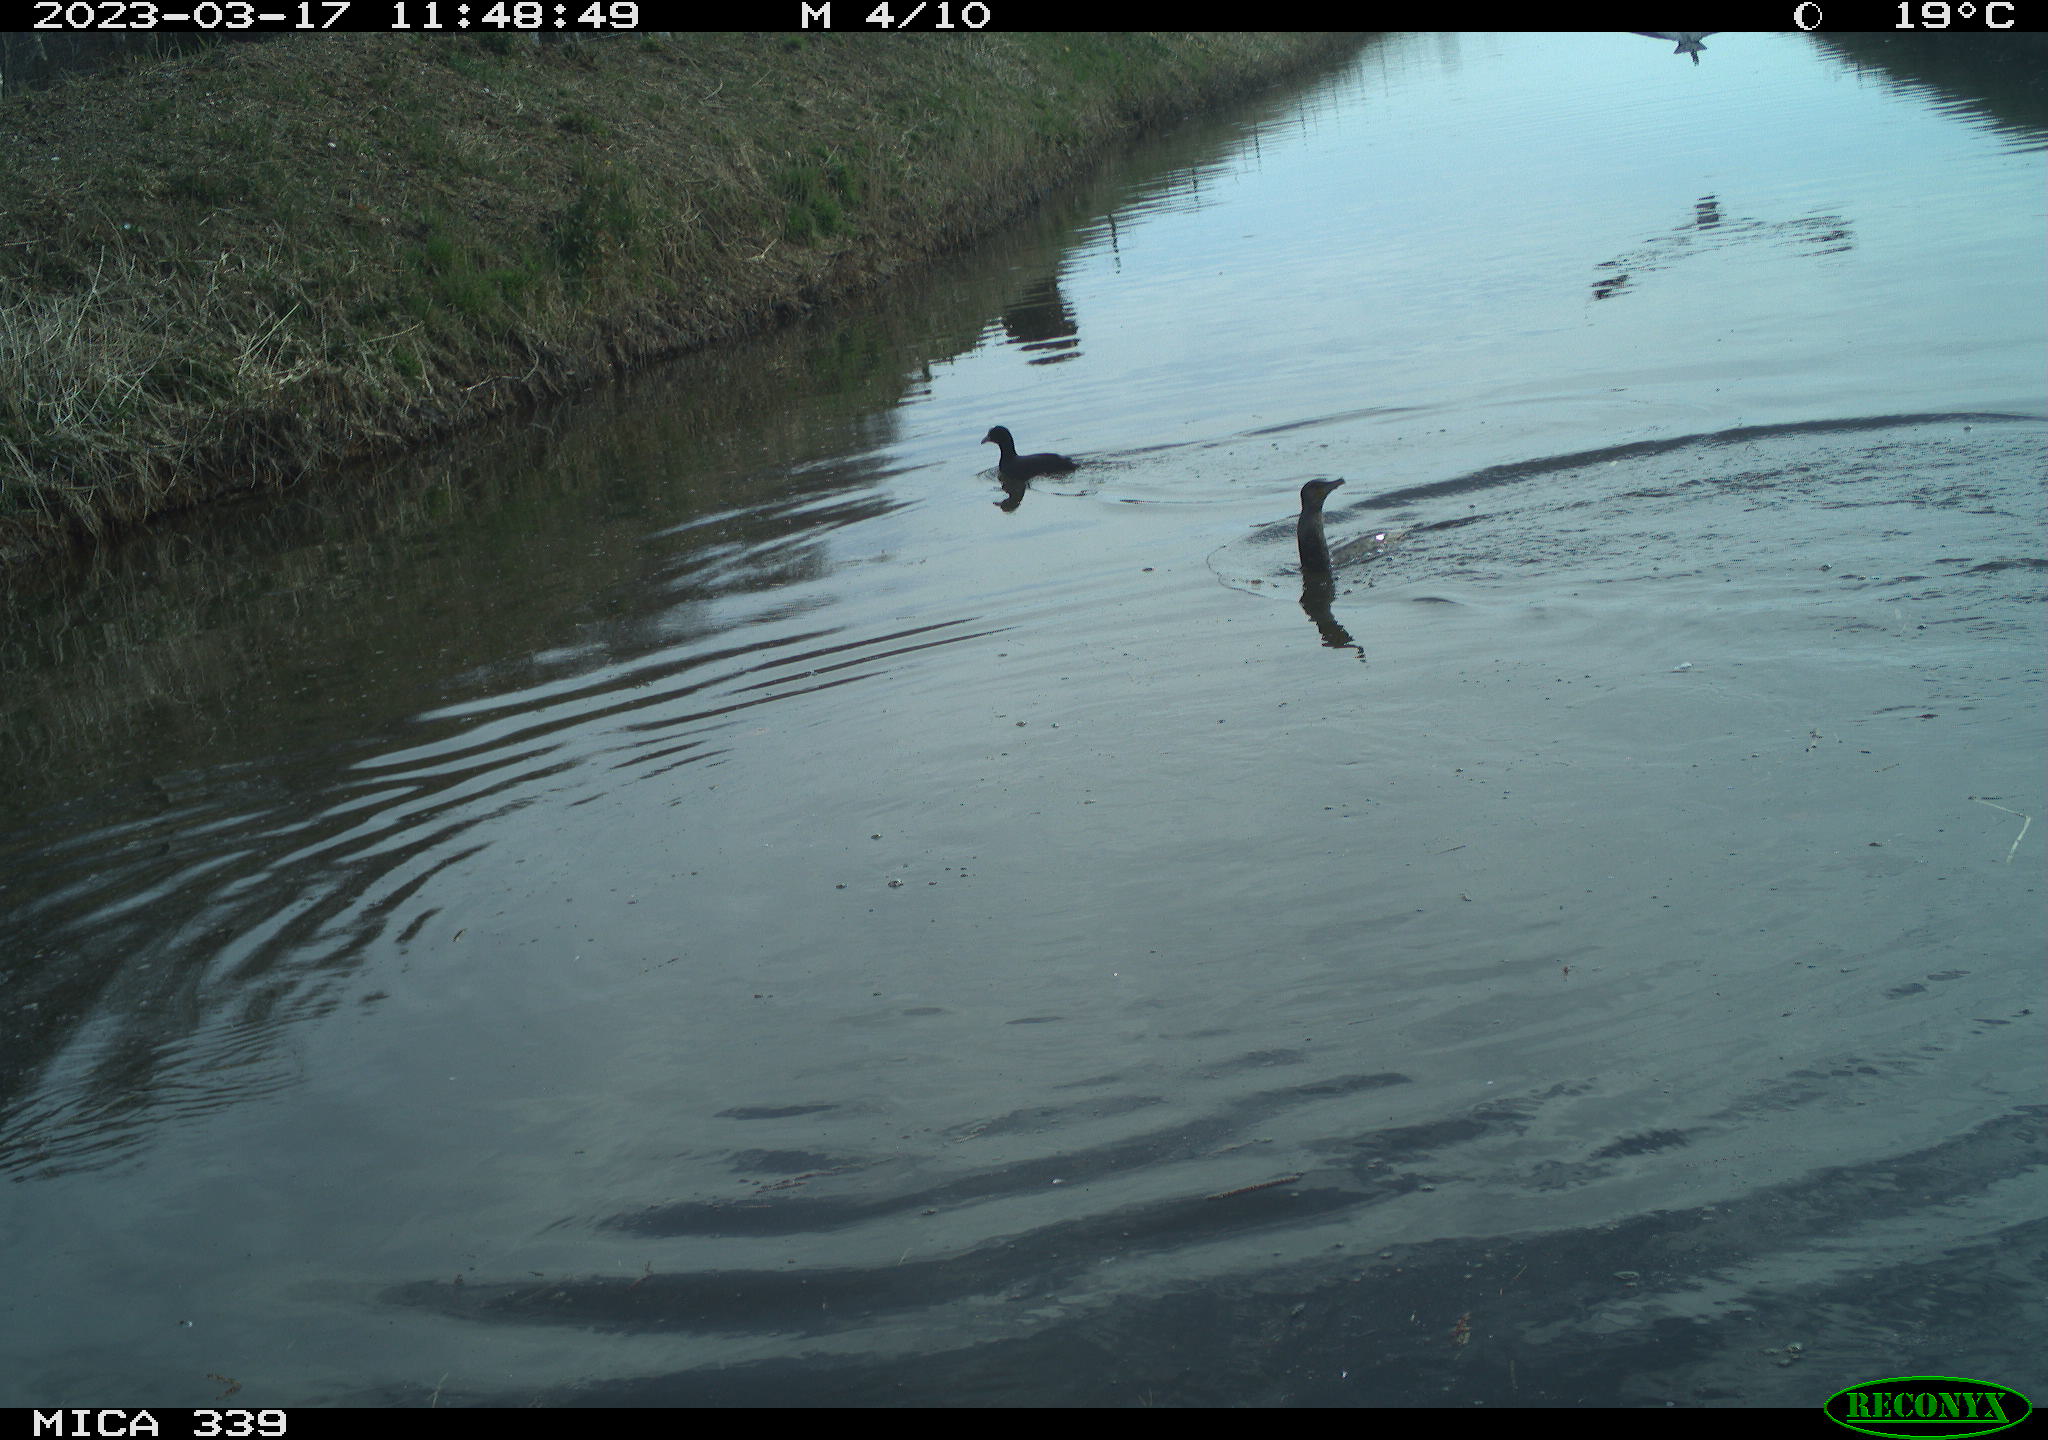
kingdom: Animalia
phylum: Chordata
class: Aves
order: Anseriformes
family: Anatidae
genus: Anas
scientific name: Anas
